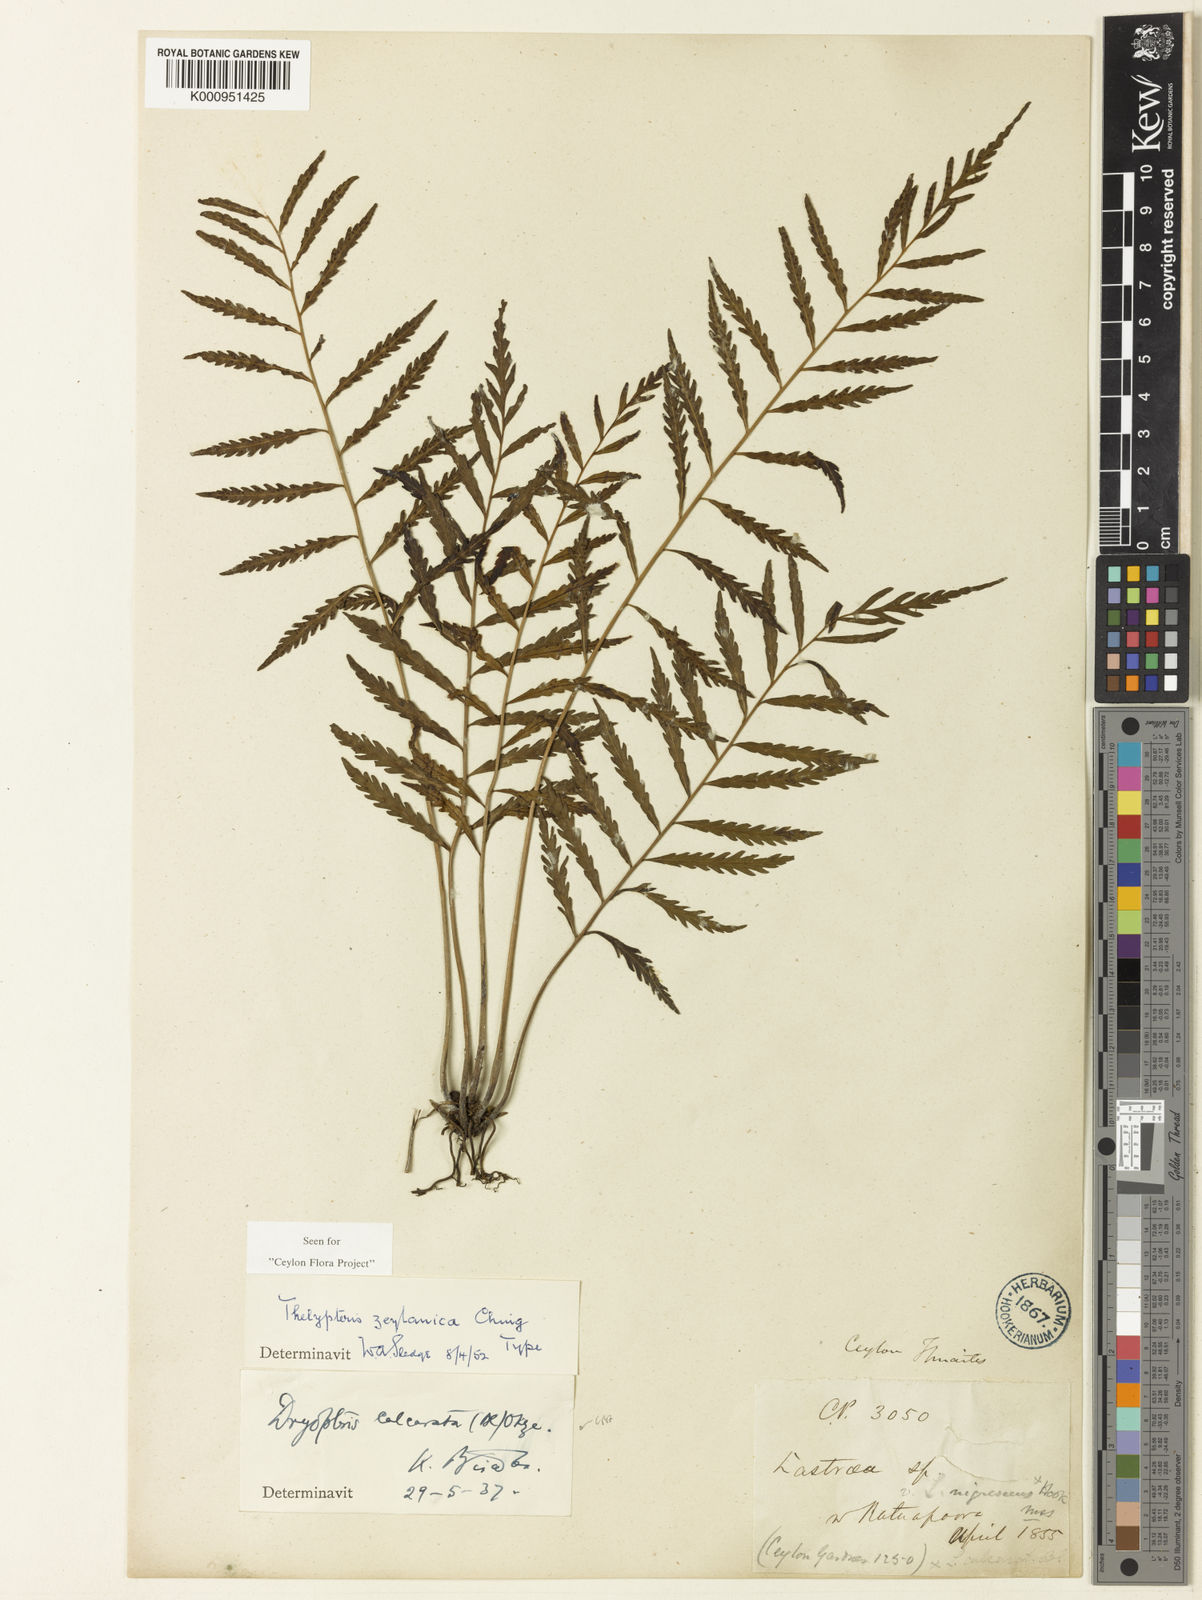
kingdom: Plantae
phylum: Tracheophyta
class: Polypodiopsida
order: Polypodiales
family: Thelypteridaceae
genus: Trigonospora
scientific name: Trigonospora zeylanica
